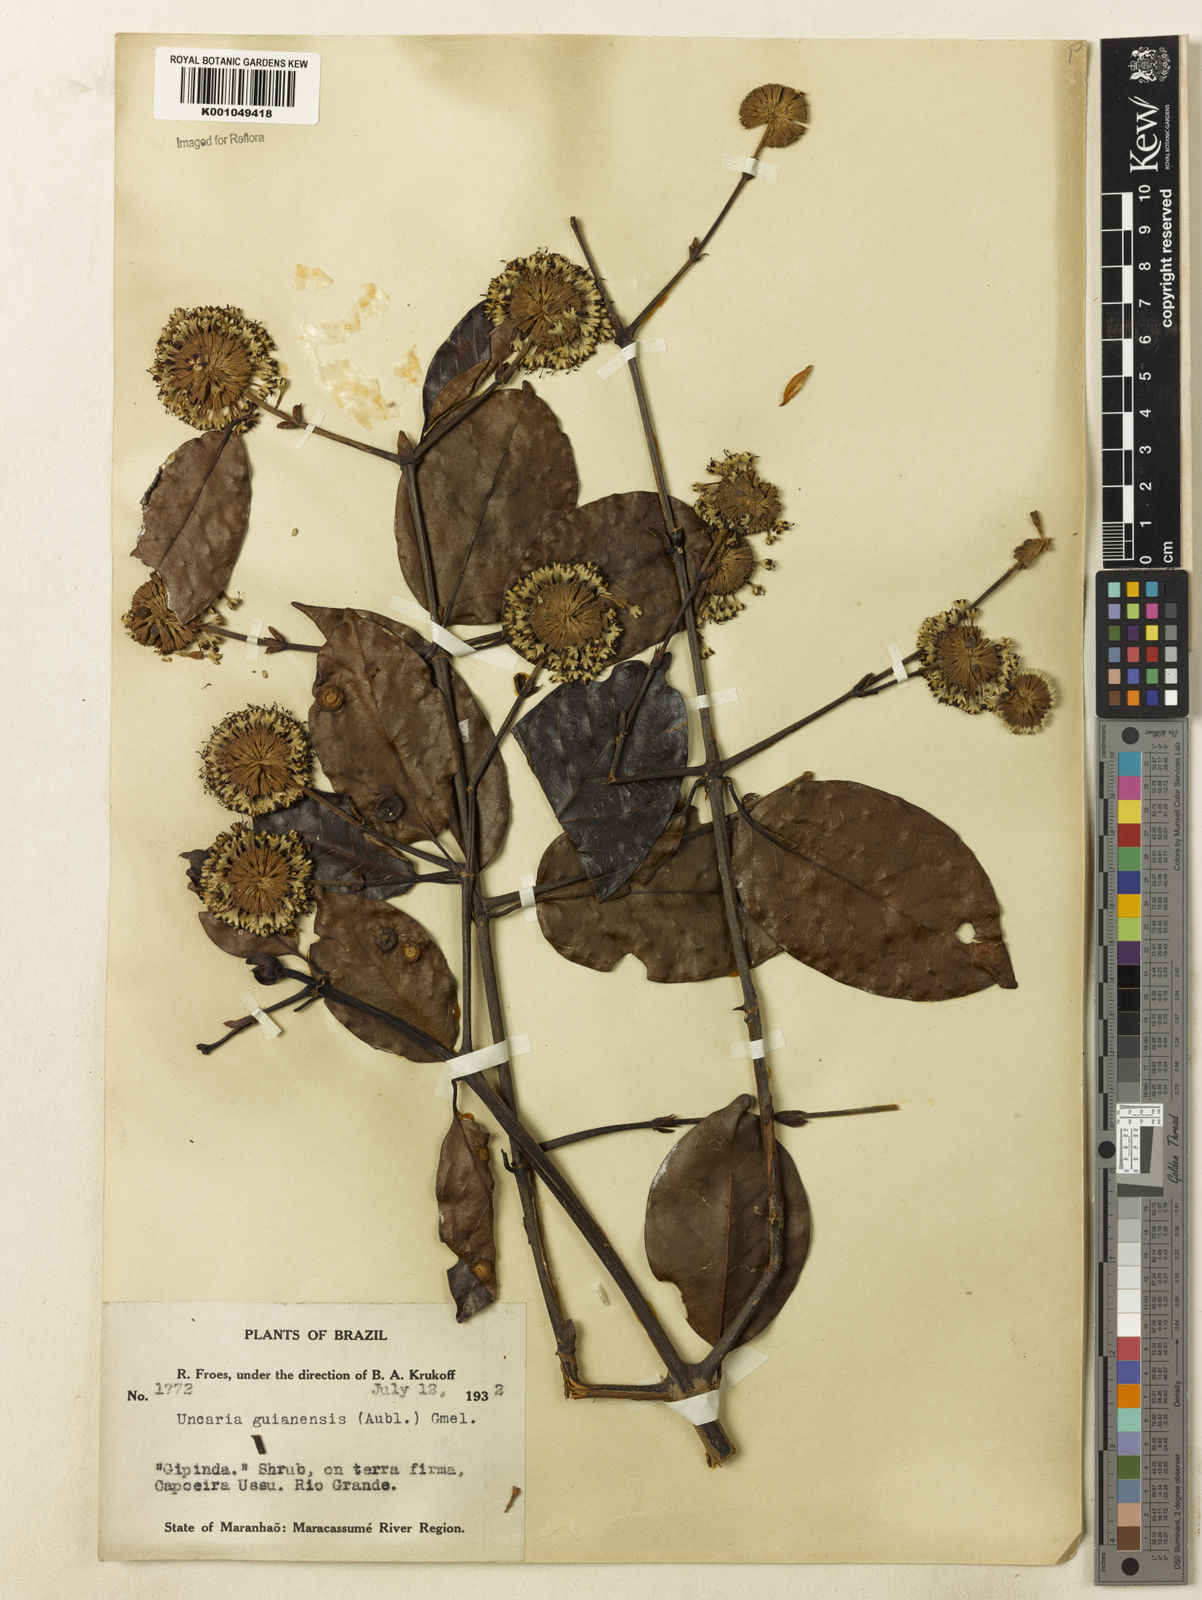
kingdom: Plantae
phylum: Tracheophyta
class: Magnoliopsida
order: Gentianales
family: Rubiaceae
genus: Uncaria
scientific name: Uncaria guianensis
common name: Cat's-claw
